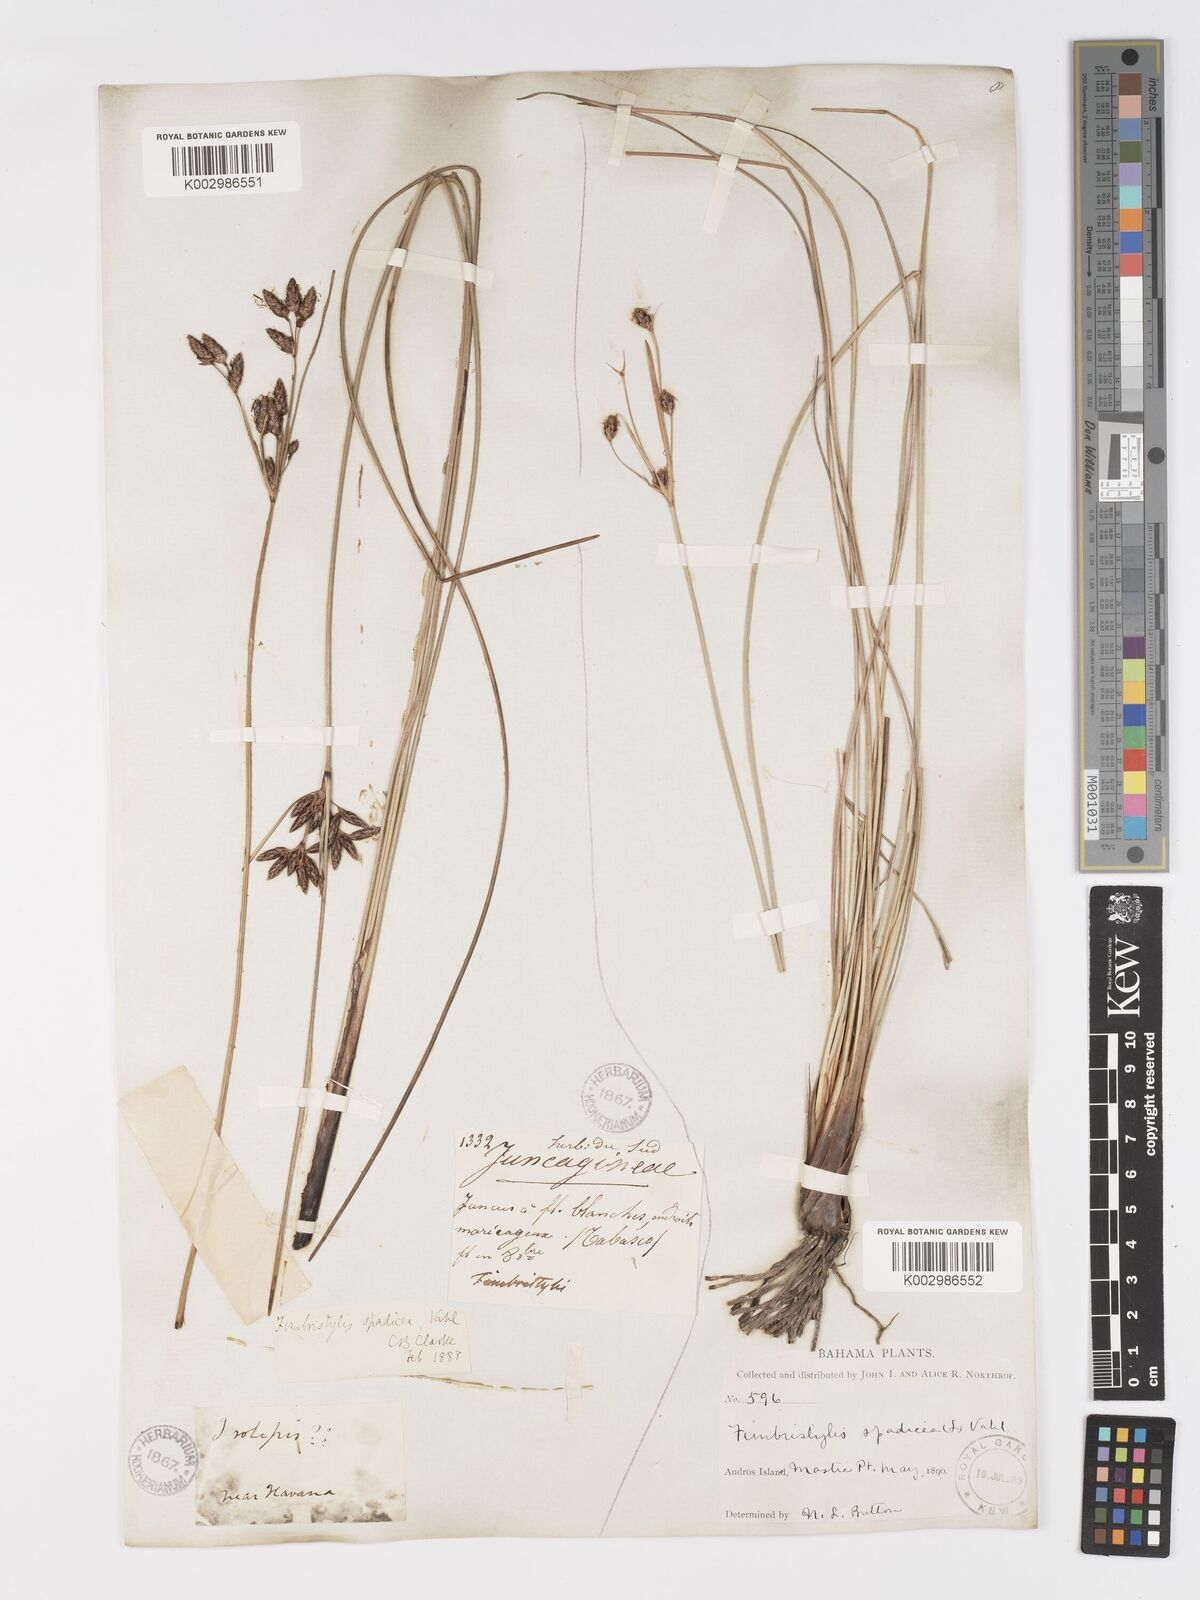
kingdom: Plantae
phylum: Tracheophyta
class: Liliopsida
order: Poales
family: Cyperaceae
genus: Fimbristylis
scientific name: Fimbristylis spadicea
